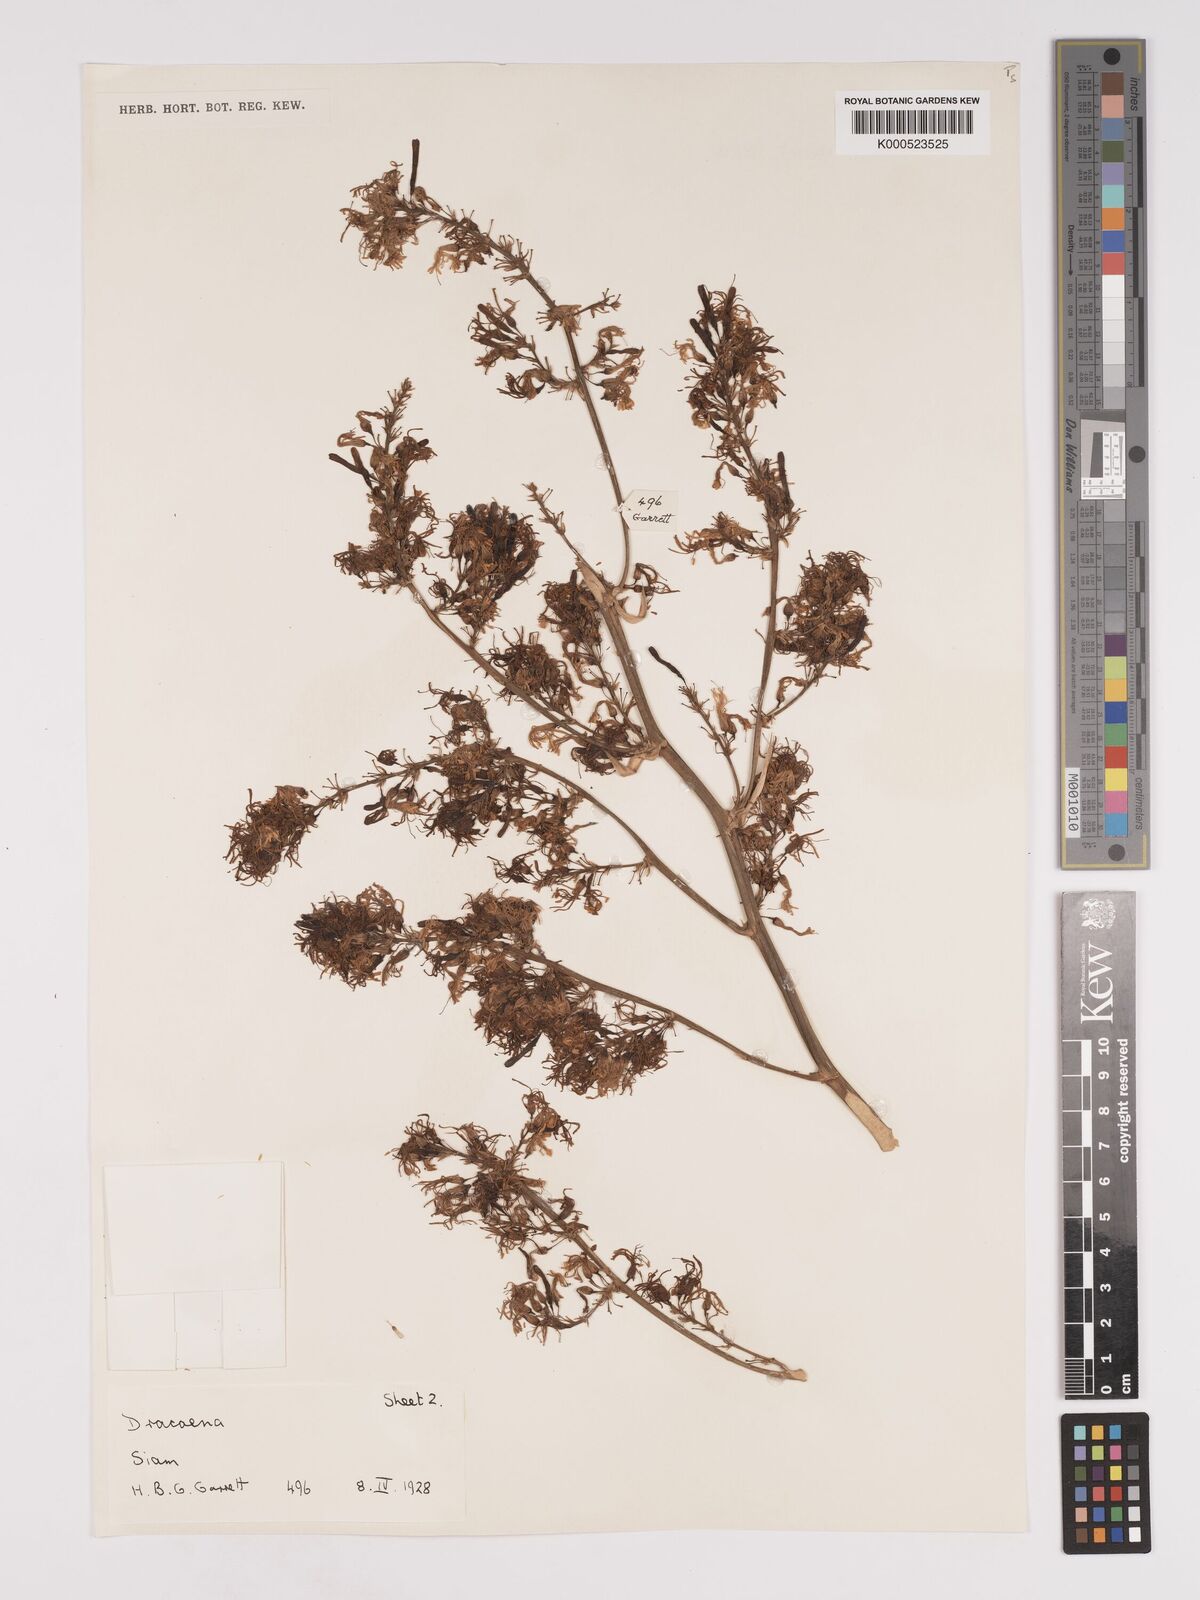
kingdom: Plantae
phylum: Tracheophyta
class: Liliopsida
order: Asparagales
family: Asparagaceae
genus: Dracaena
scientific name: Dracaena
